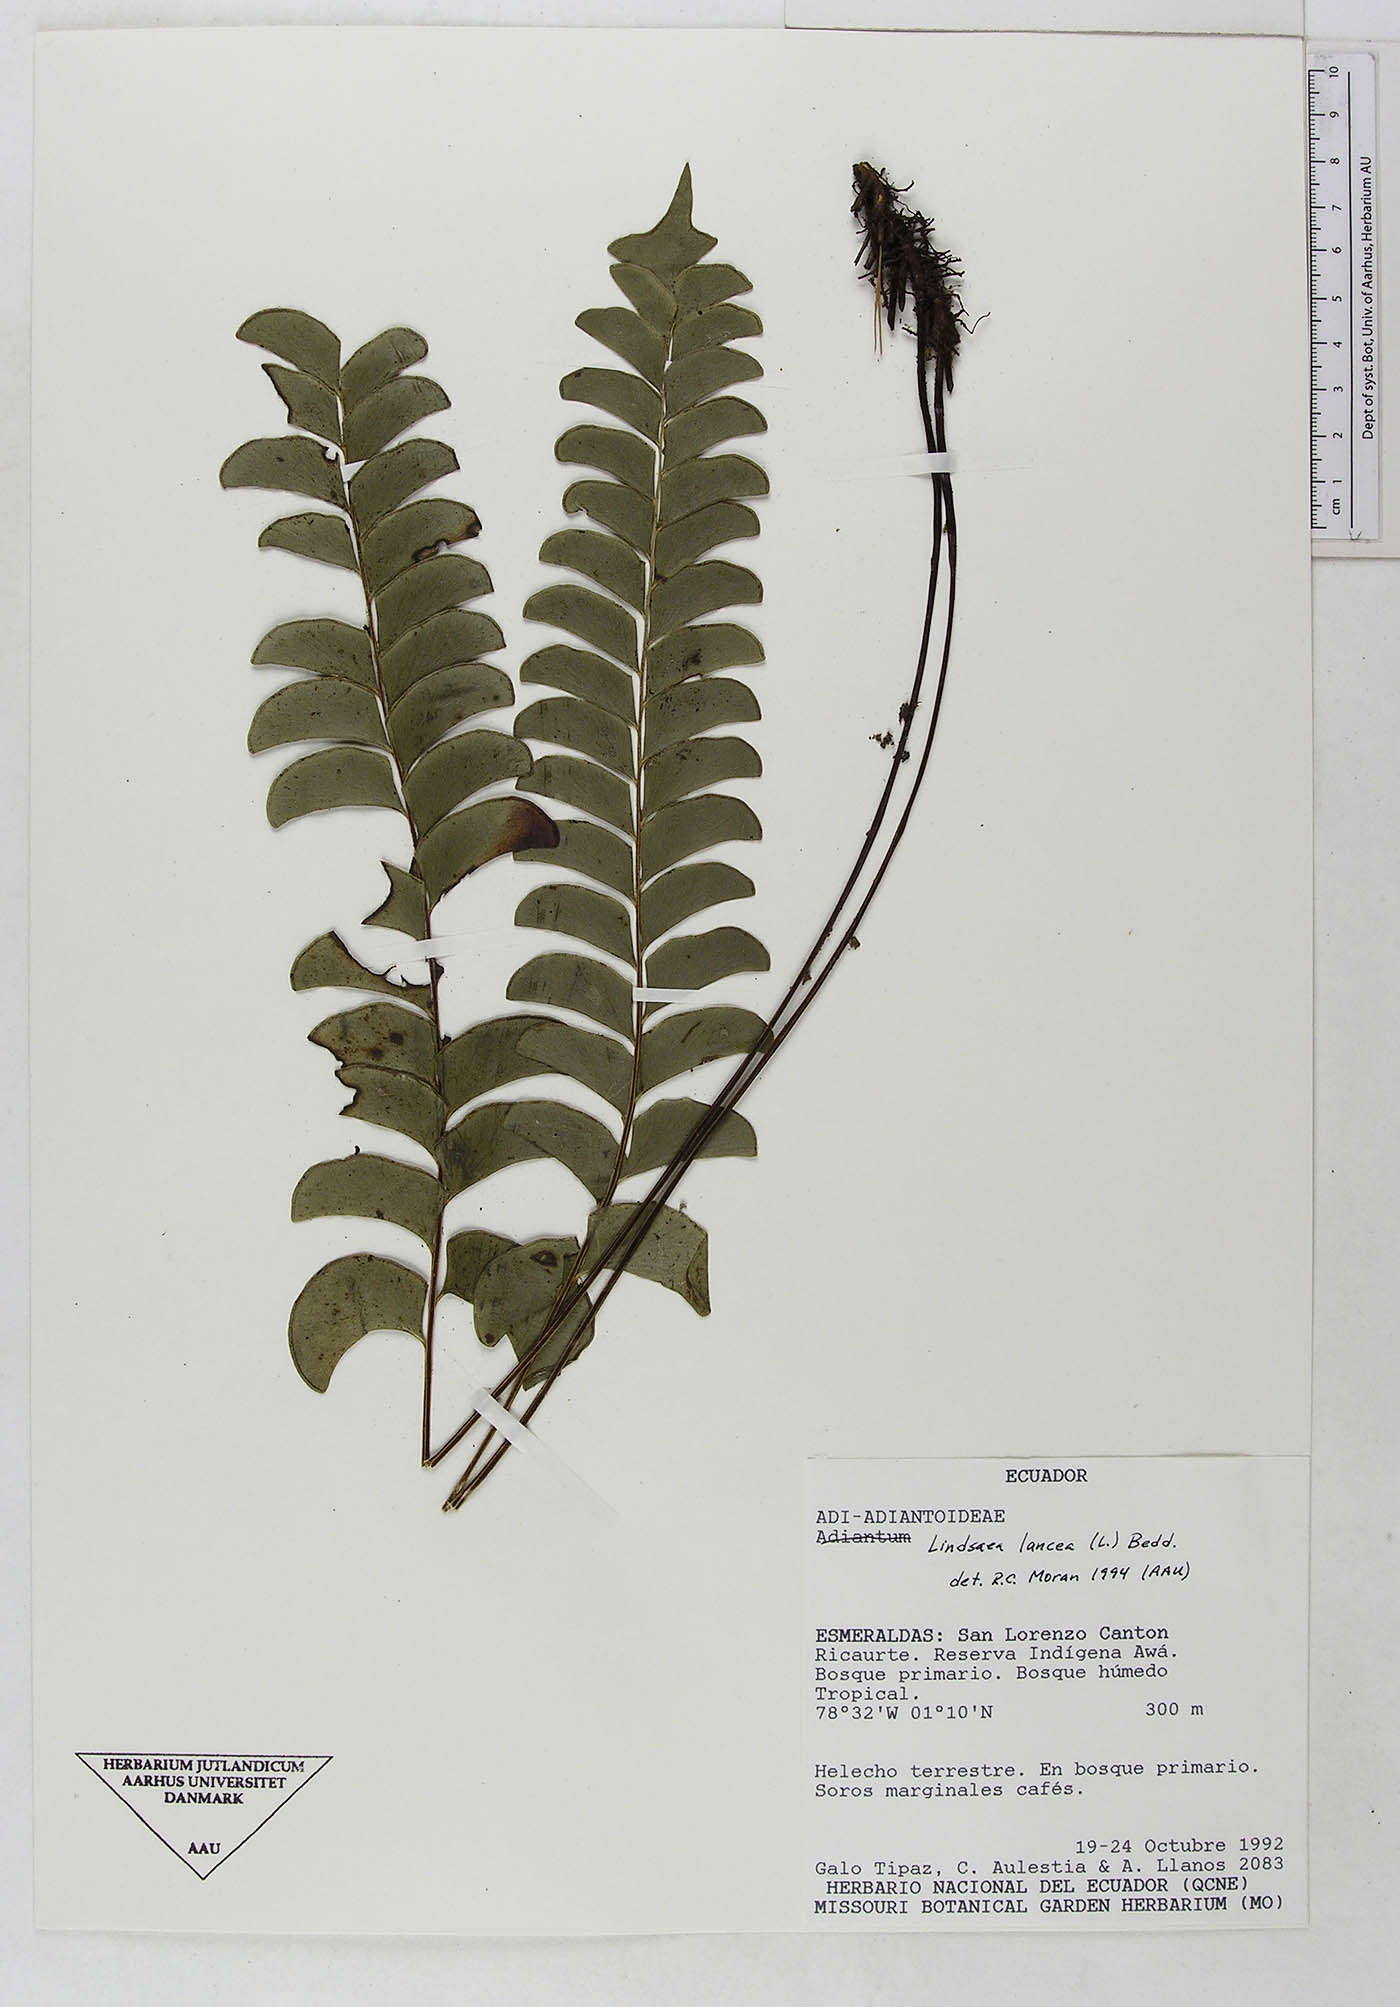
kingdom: Plantae
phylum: Tracheophyta
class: Polypodiopsida
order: Polypodiales
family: Dennstaedtiaceae
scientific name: Dennstaedtiaceae
